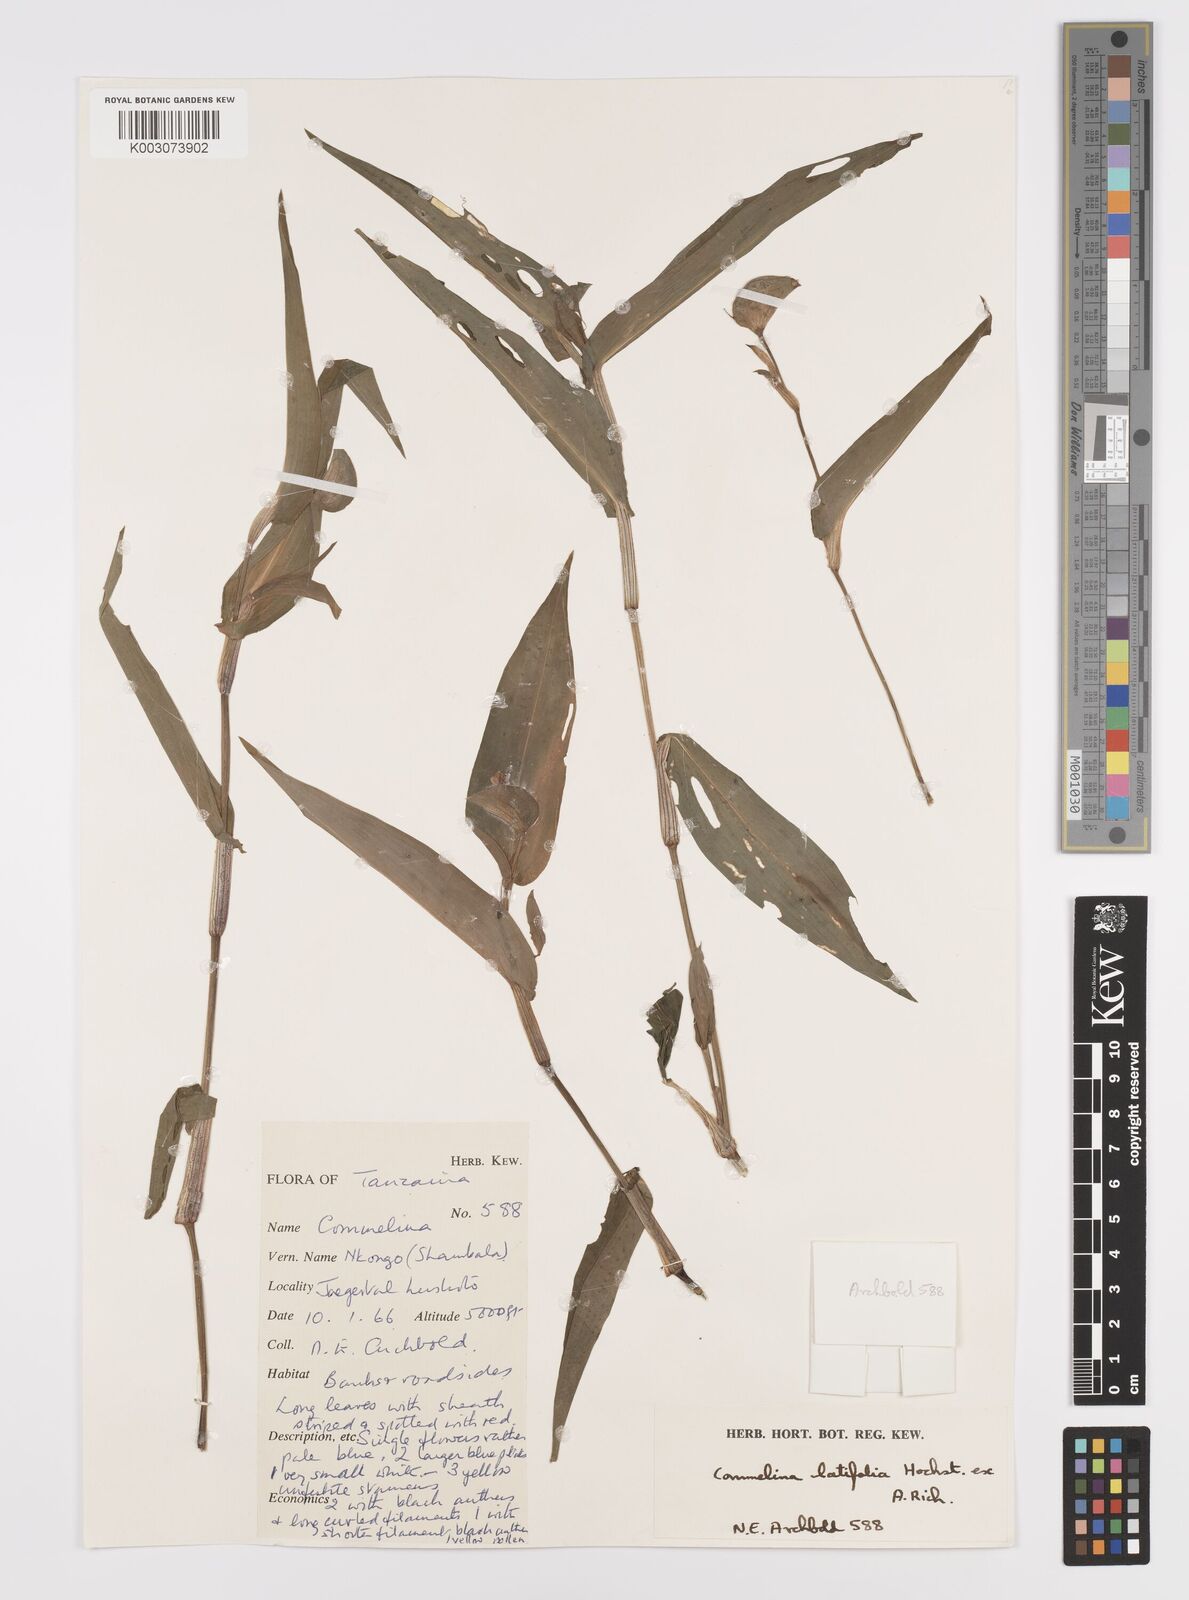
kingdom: Plantae
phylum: Tracheophyta
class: Liliopsida
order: Commelinales
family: Commelinaceae
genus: Commelina
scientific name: Commelina latifolia
